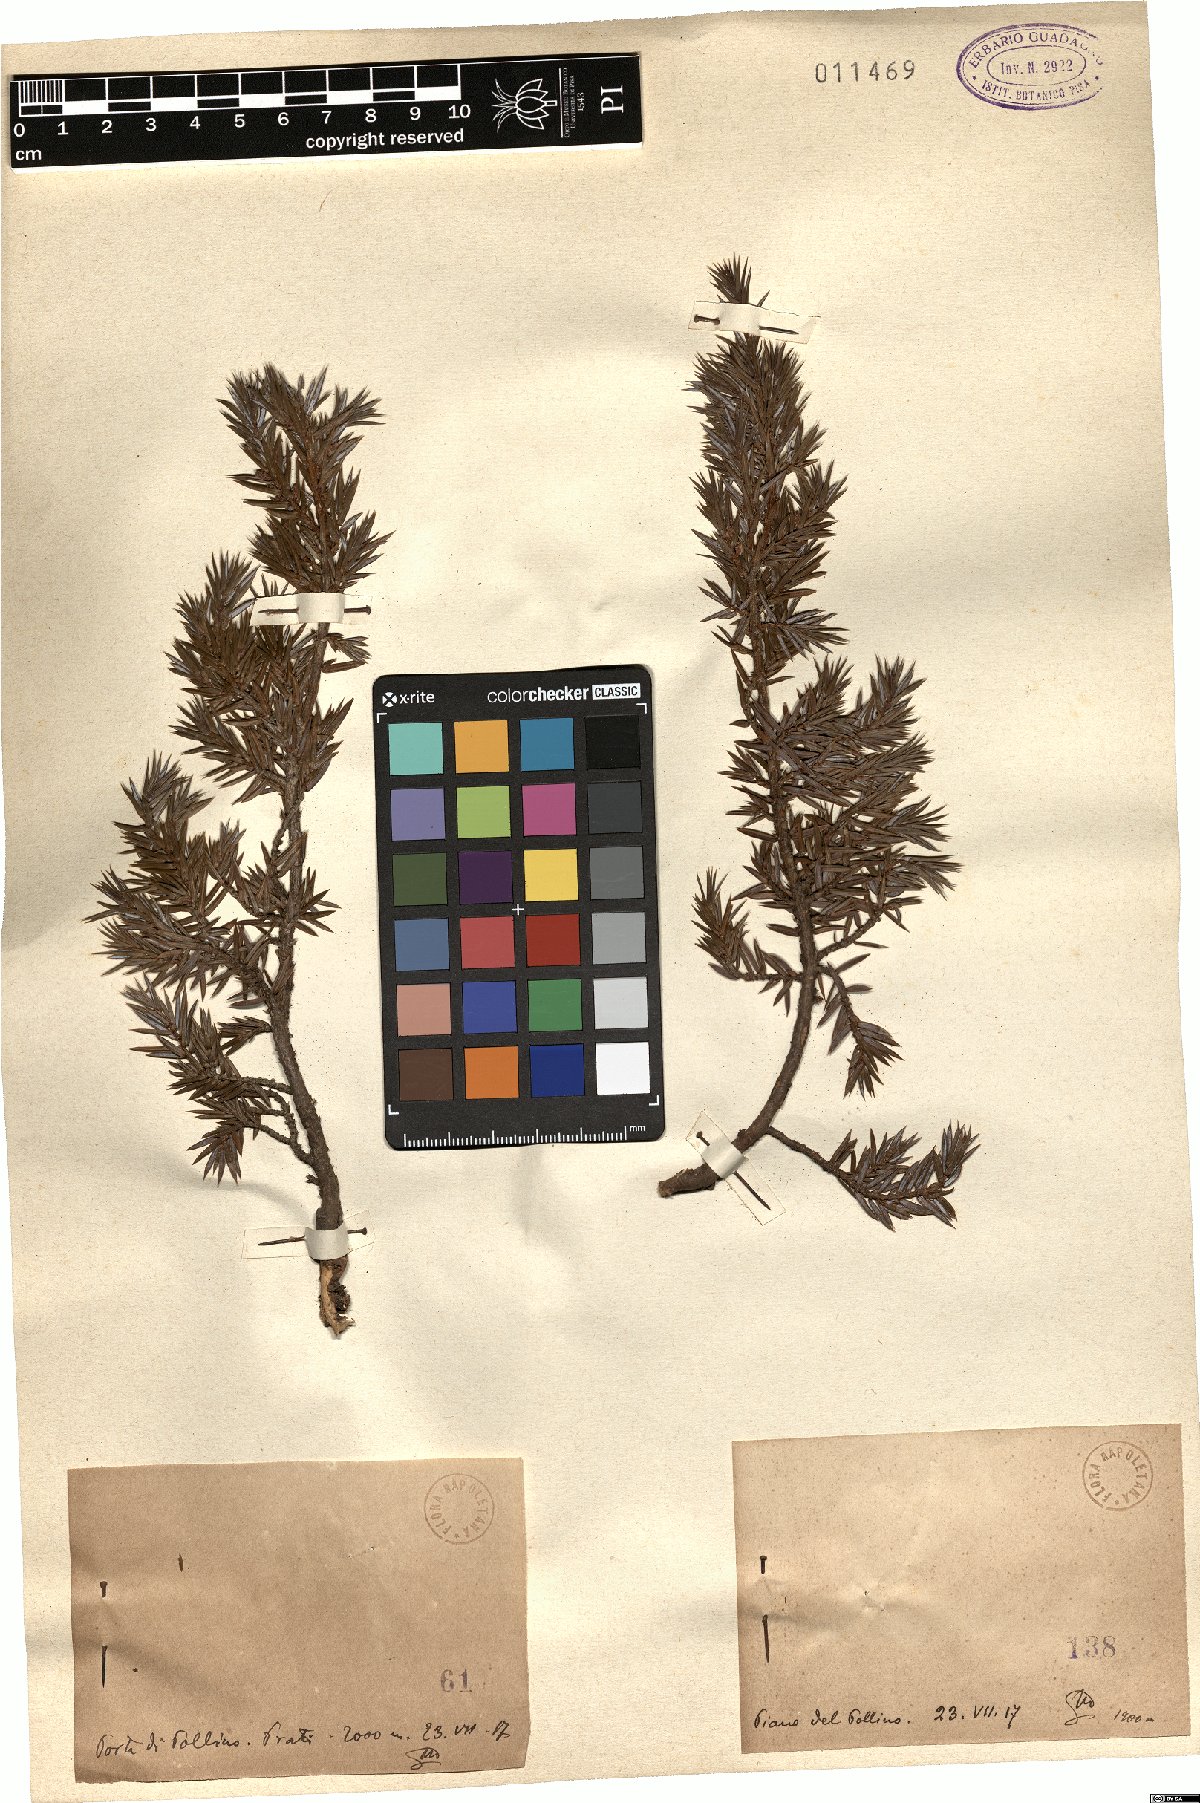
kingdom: Plantae
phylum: Tracheophyta
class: Pinopsida
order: Pinales
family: Cupressaceae
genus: Juniperus
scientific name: Juniperus communis
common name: Common juniper
